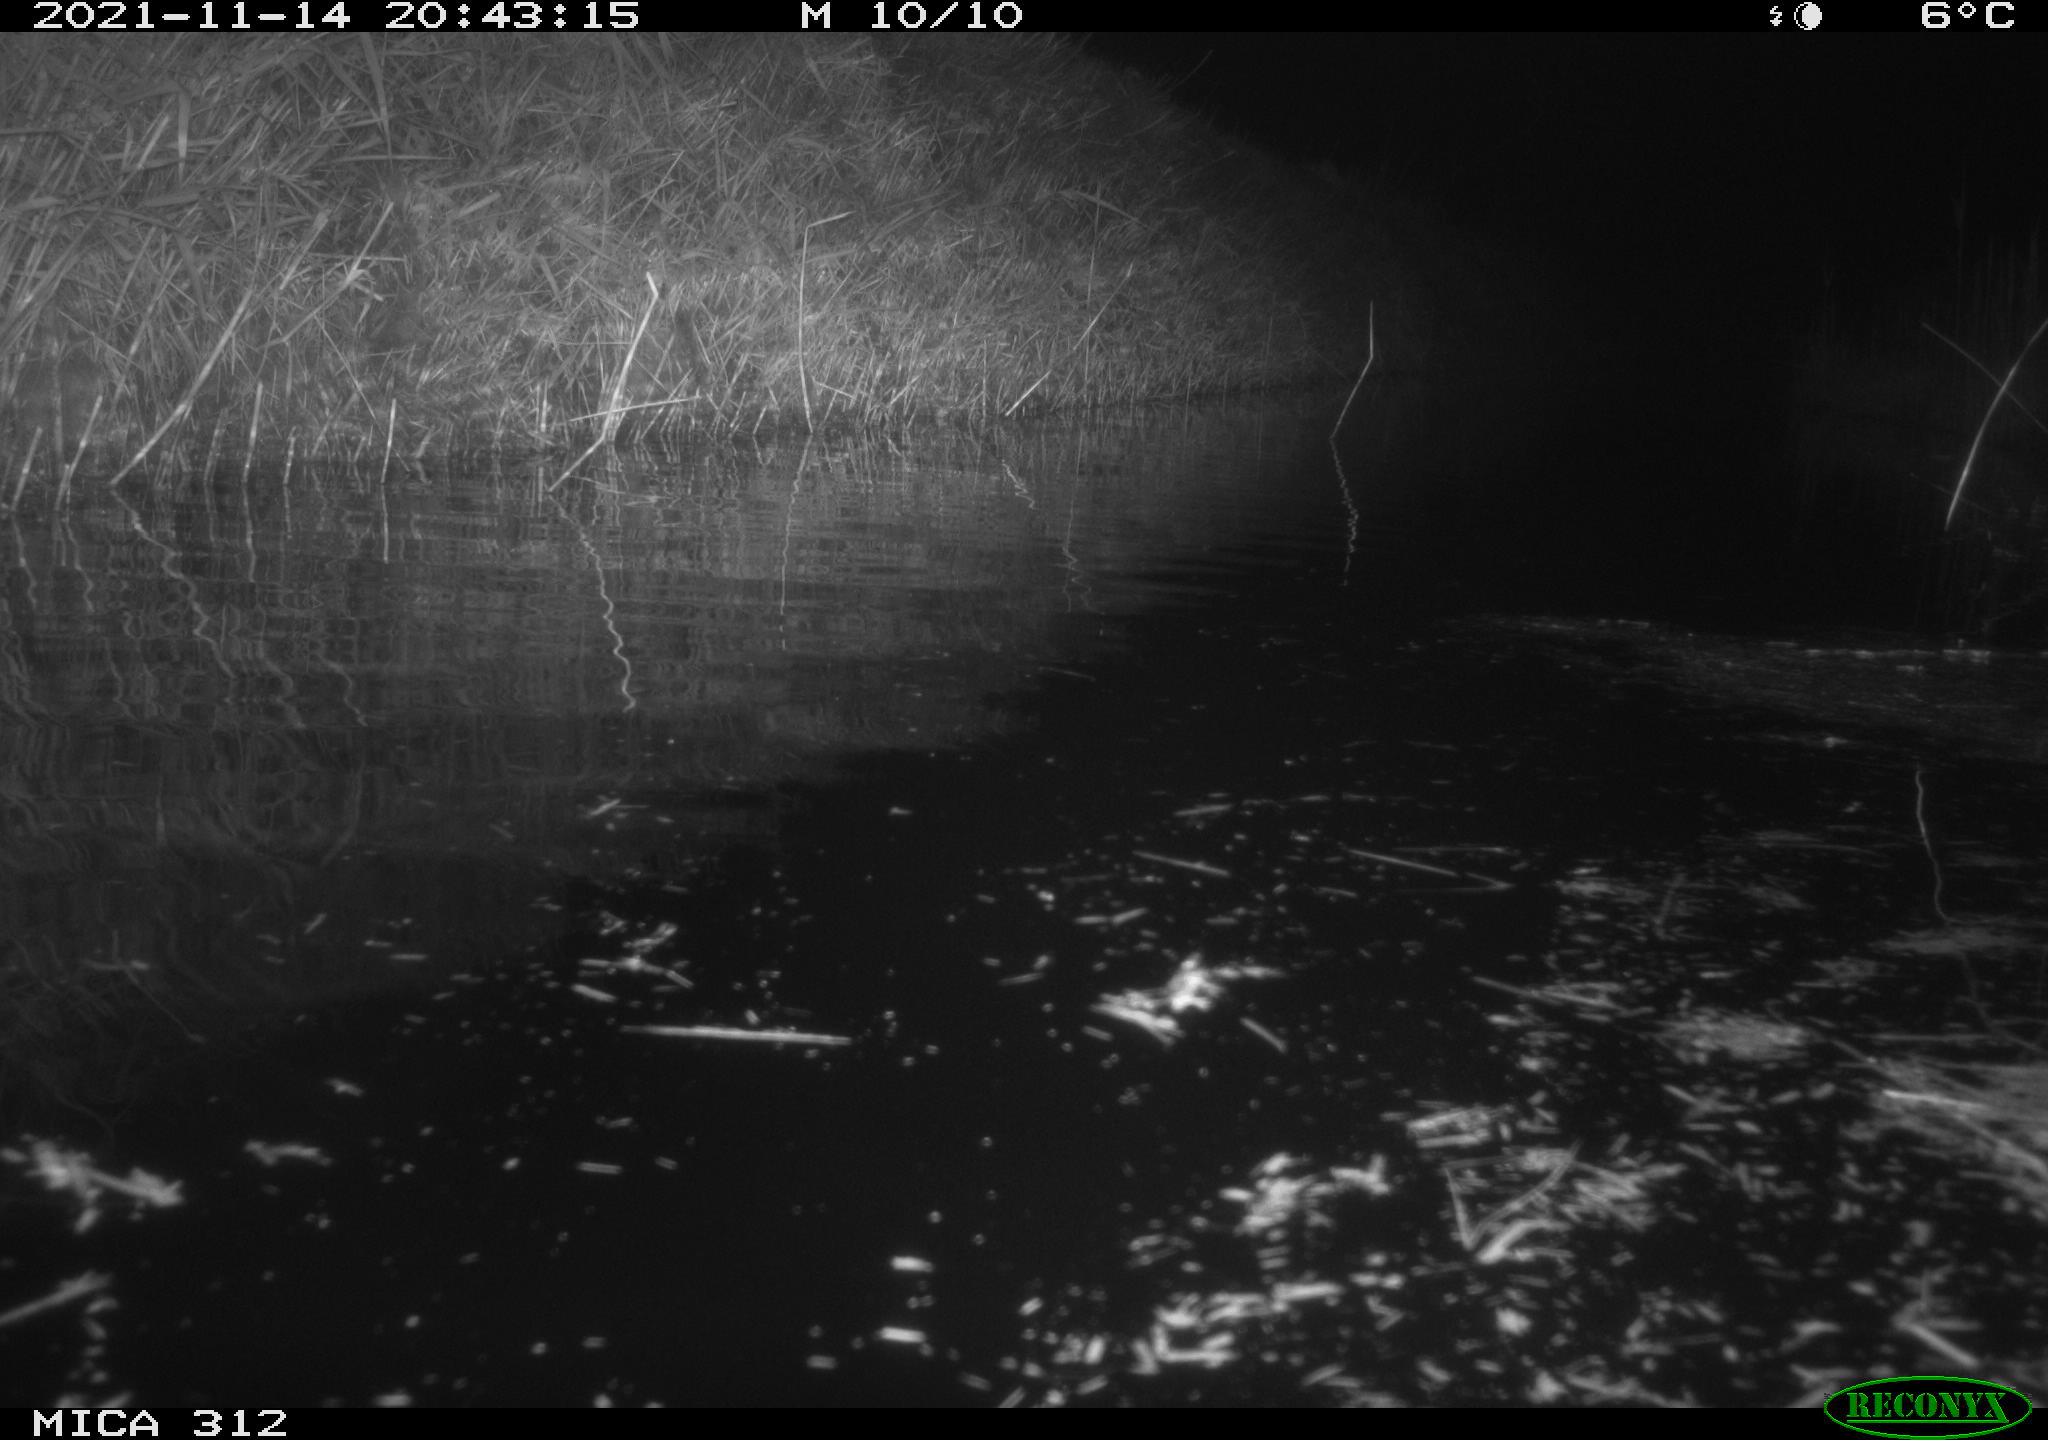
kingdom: Animalia
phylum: Chordata
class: Mammalia
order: Rodentia
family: Cricetidae
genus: Ondatra
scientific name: Ondatra zibethicus
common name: Muskrat
